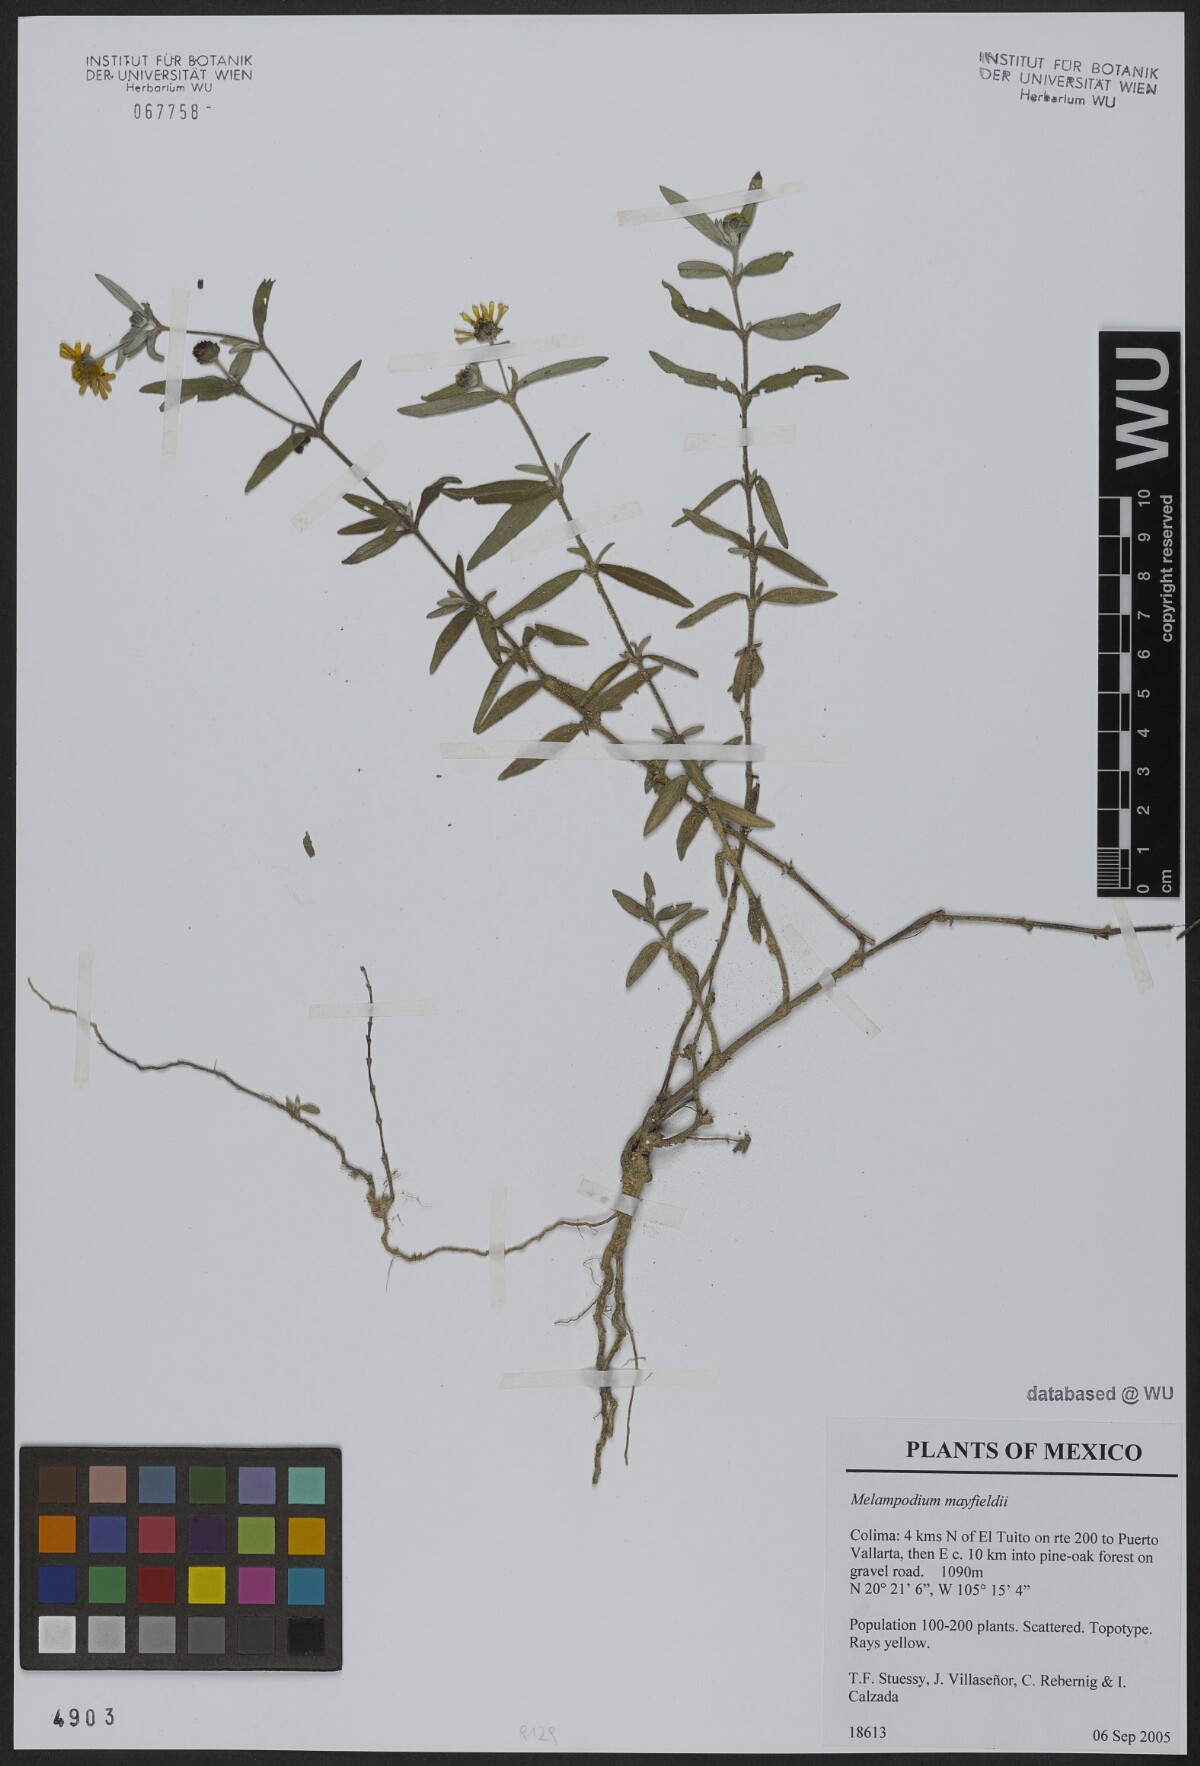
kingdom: Plantae
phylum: Tracheophyta
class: Magnoliopsida
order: Asterales
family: Asteraceae
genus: Melampodium
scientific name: Melampodium mayfieldii
